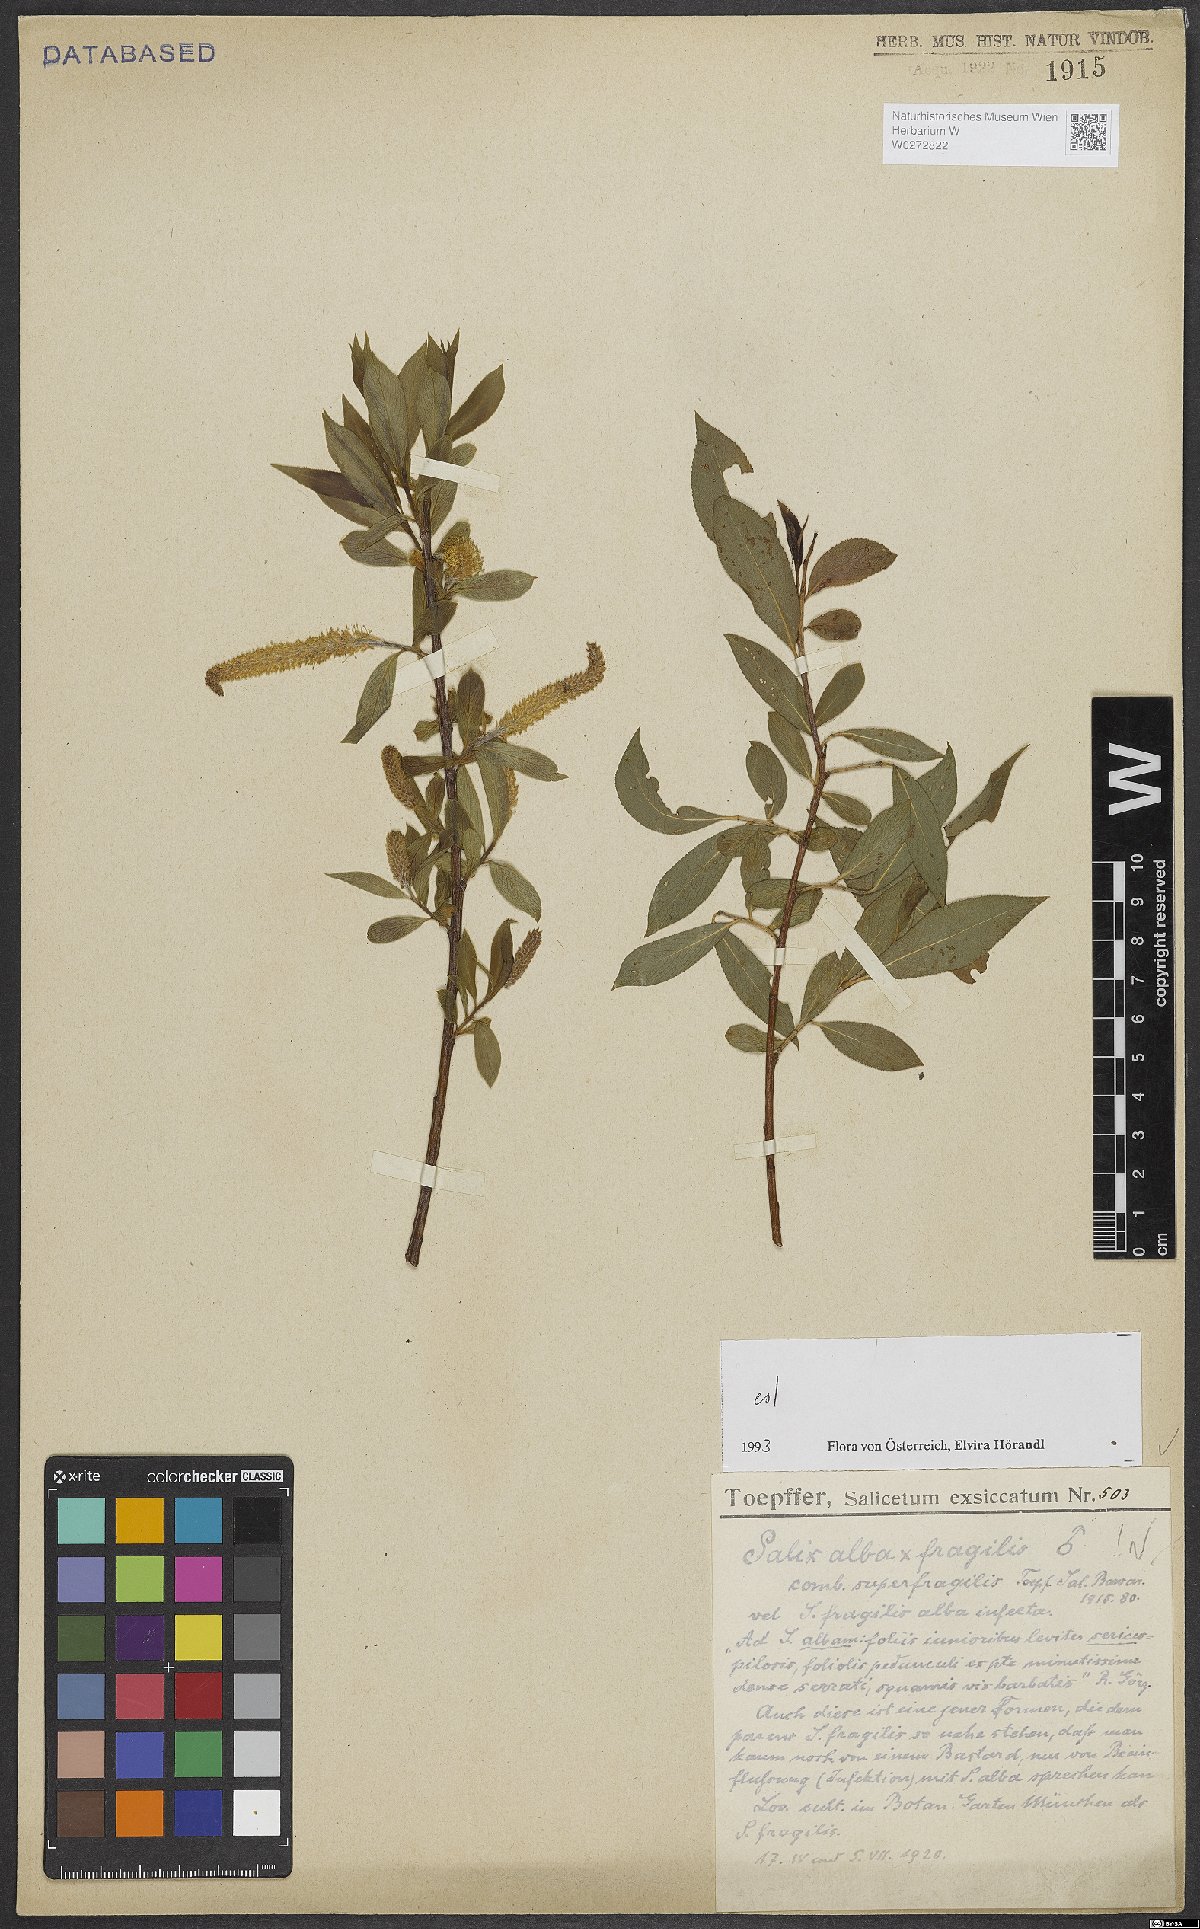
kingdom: Plantae
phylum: Tracheophyta
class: Magnoliopsida
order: Malpighiales
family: Salicaceae
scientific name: Salicaceae
